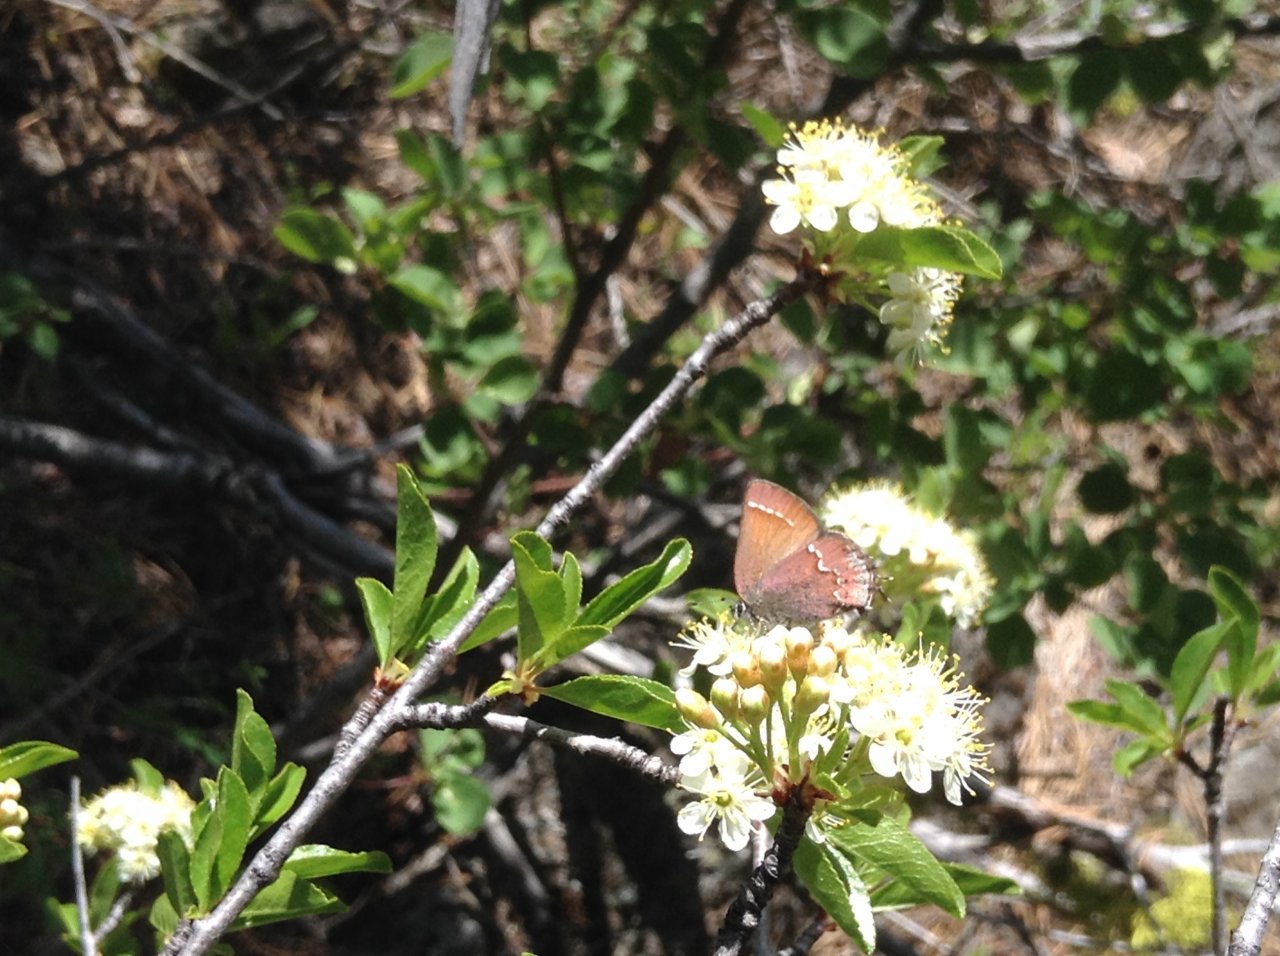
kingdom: Animalia
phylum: Arthropoda
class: Insecta
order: Lepidoptera
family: Lycaenidae
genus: Mitoura
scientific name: Mitoura nelsoni
